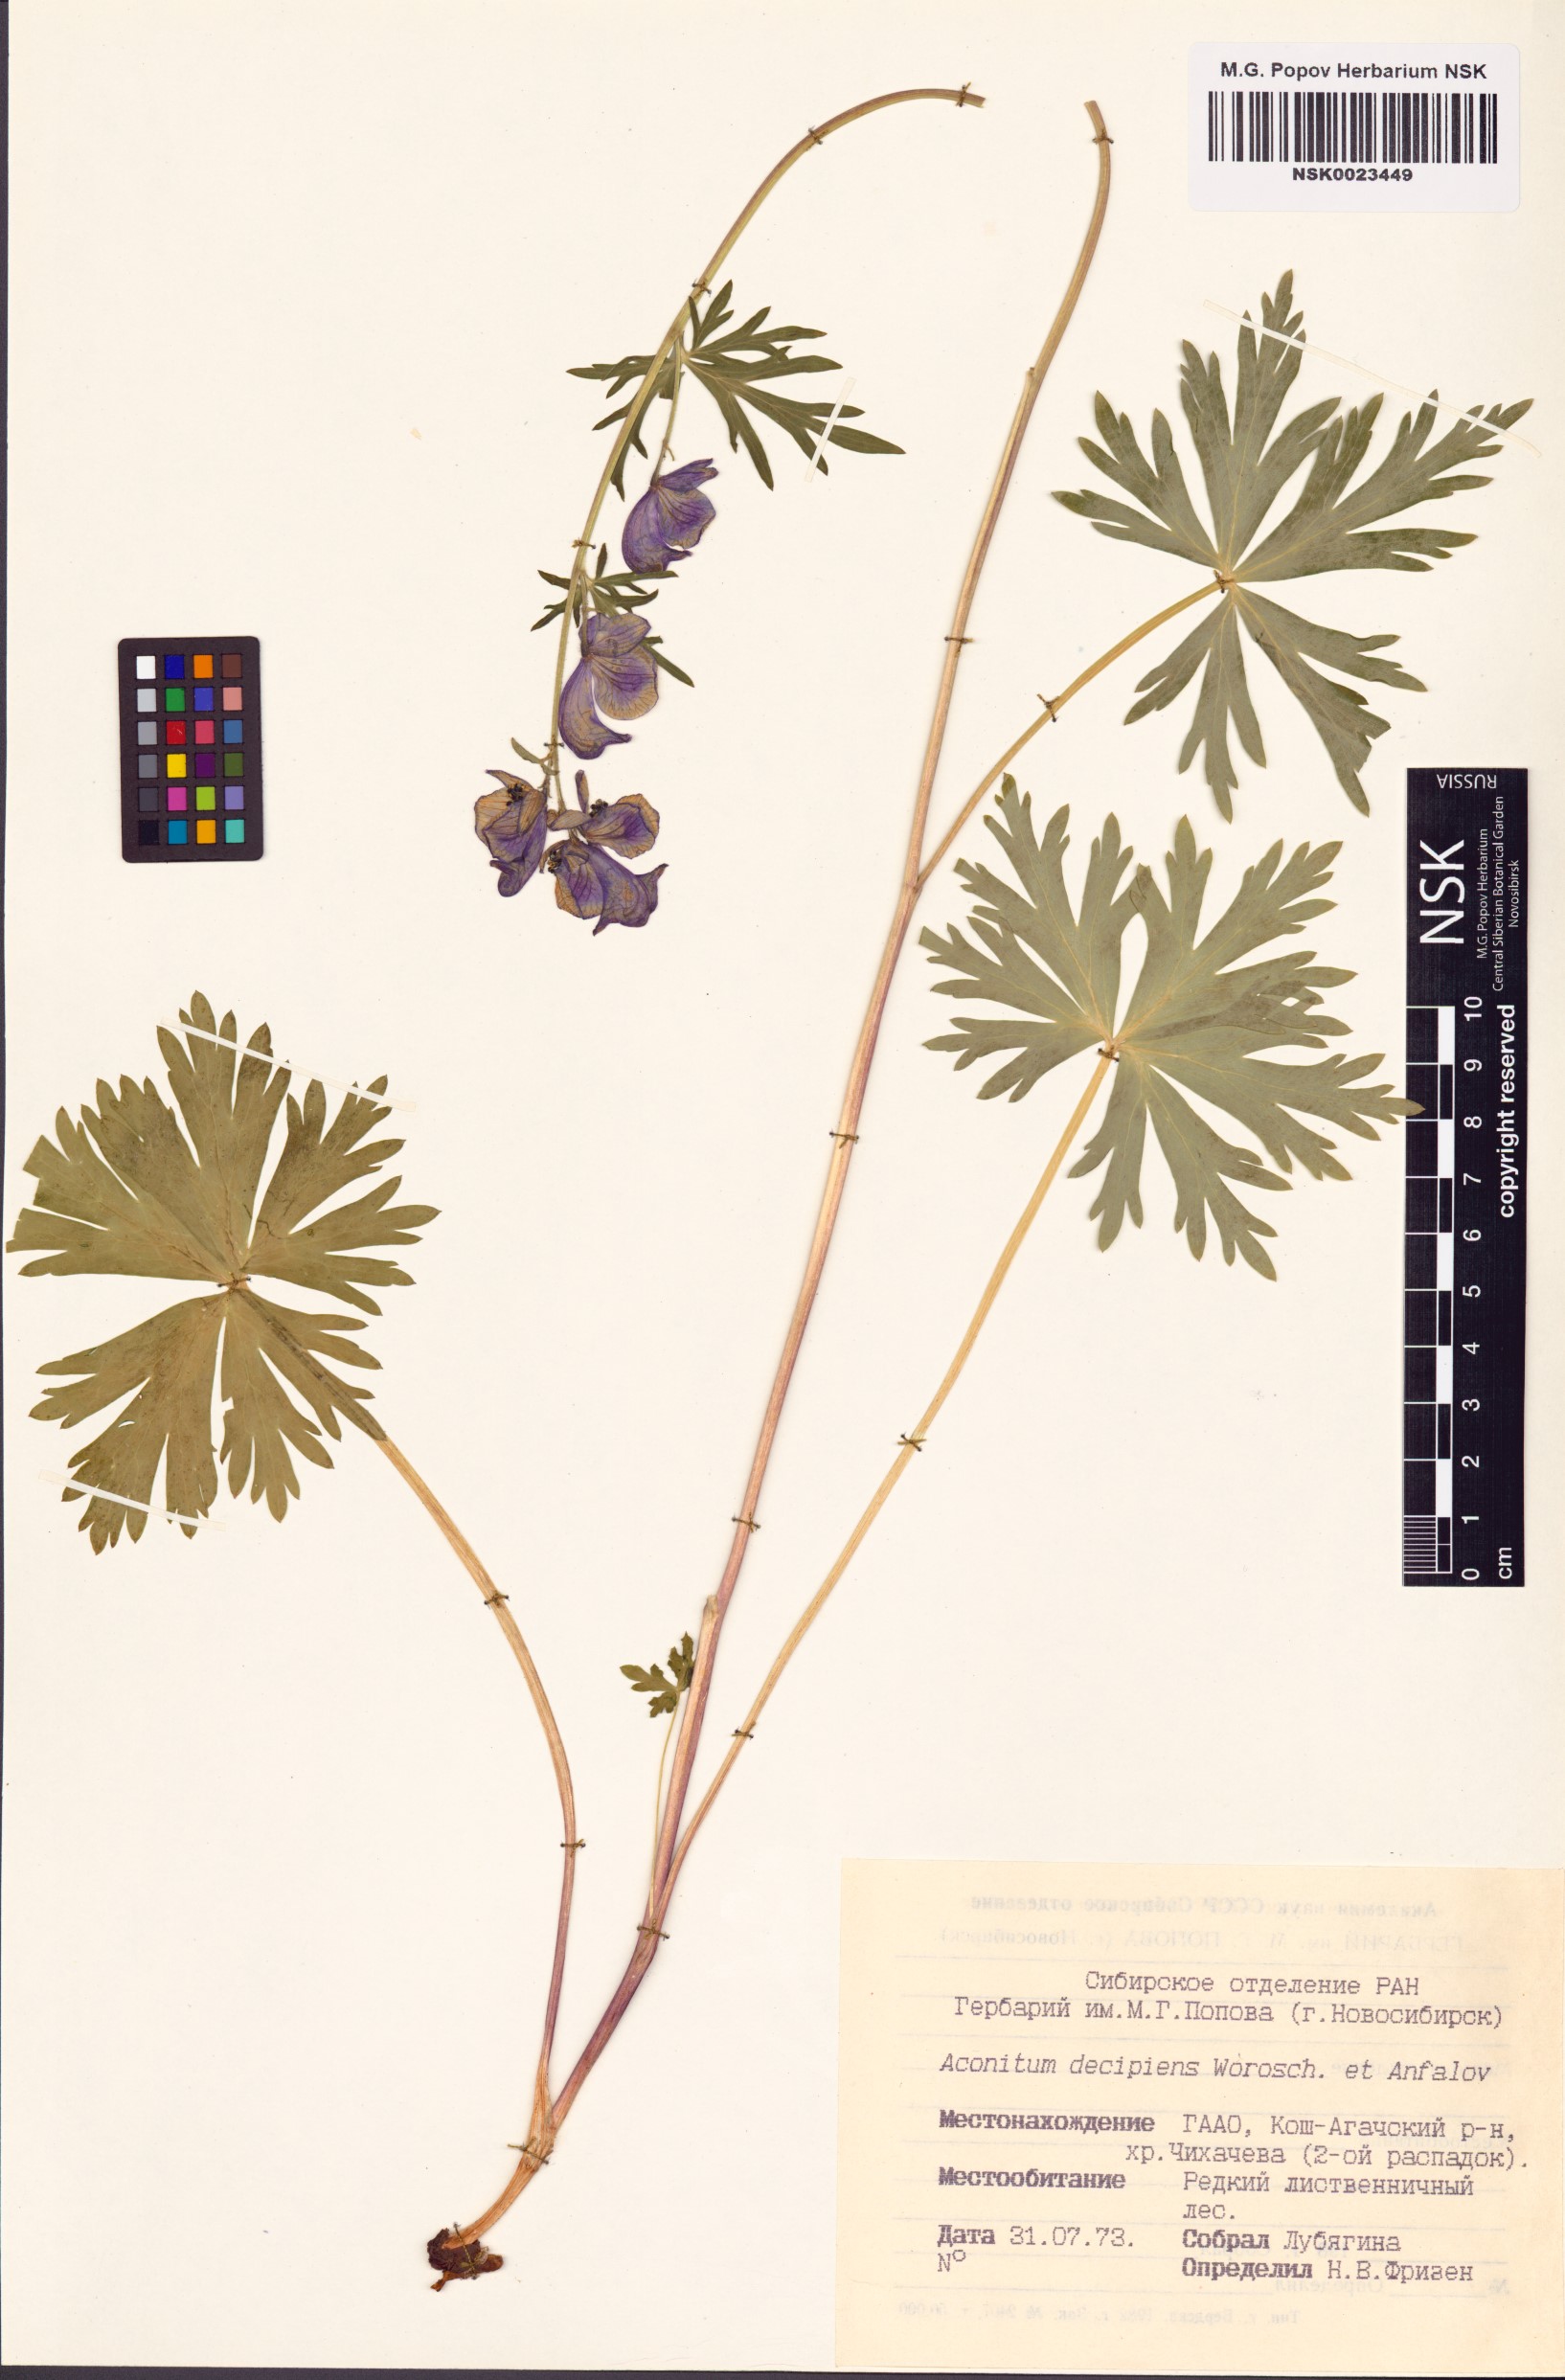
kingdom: Plantae
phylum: Tracheophyta
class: Magnoliopsida
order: Ranunculales
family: Ranunculaceae
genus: Aconitum
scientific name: Aconitum decipiens
